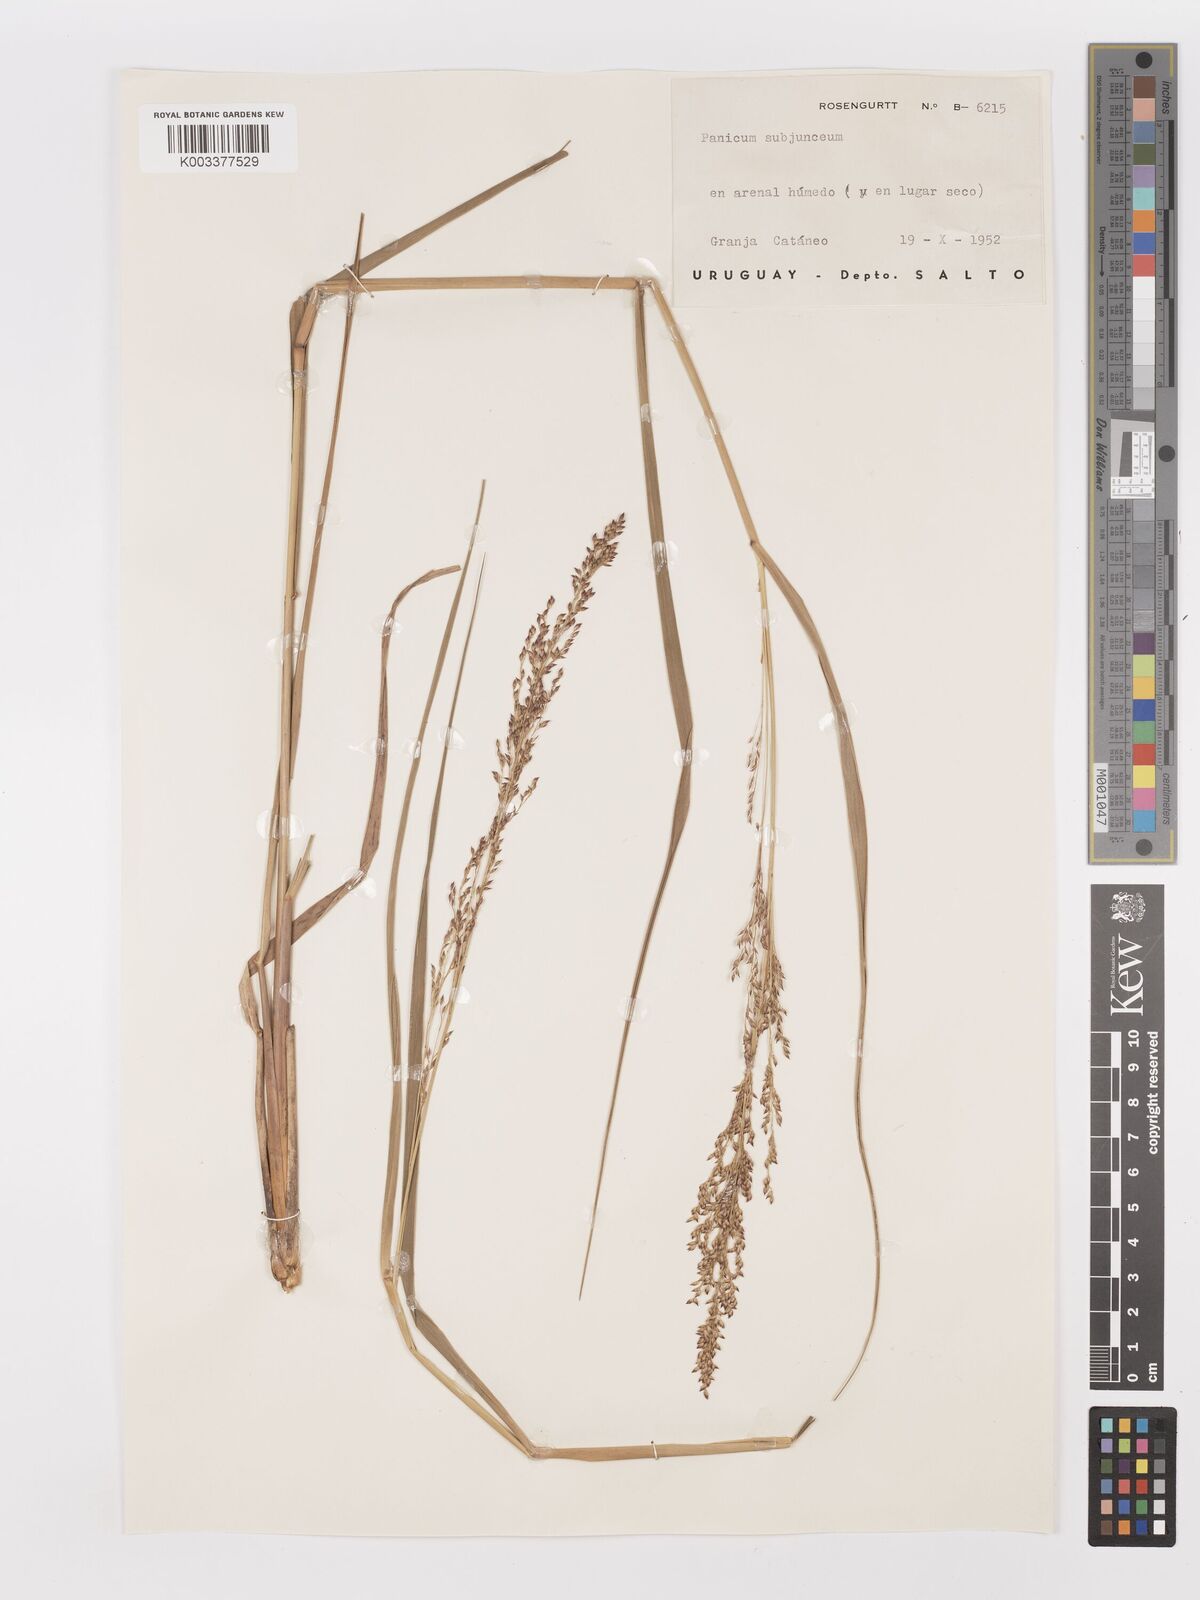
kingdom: Plantae
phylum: Tracheophyta
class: Liliopsida
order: Poales
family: Poaceae
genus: Panicum
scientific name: Panicum glabripes
